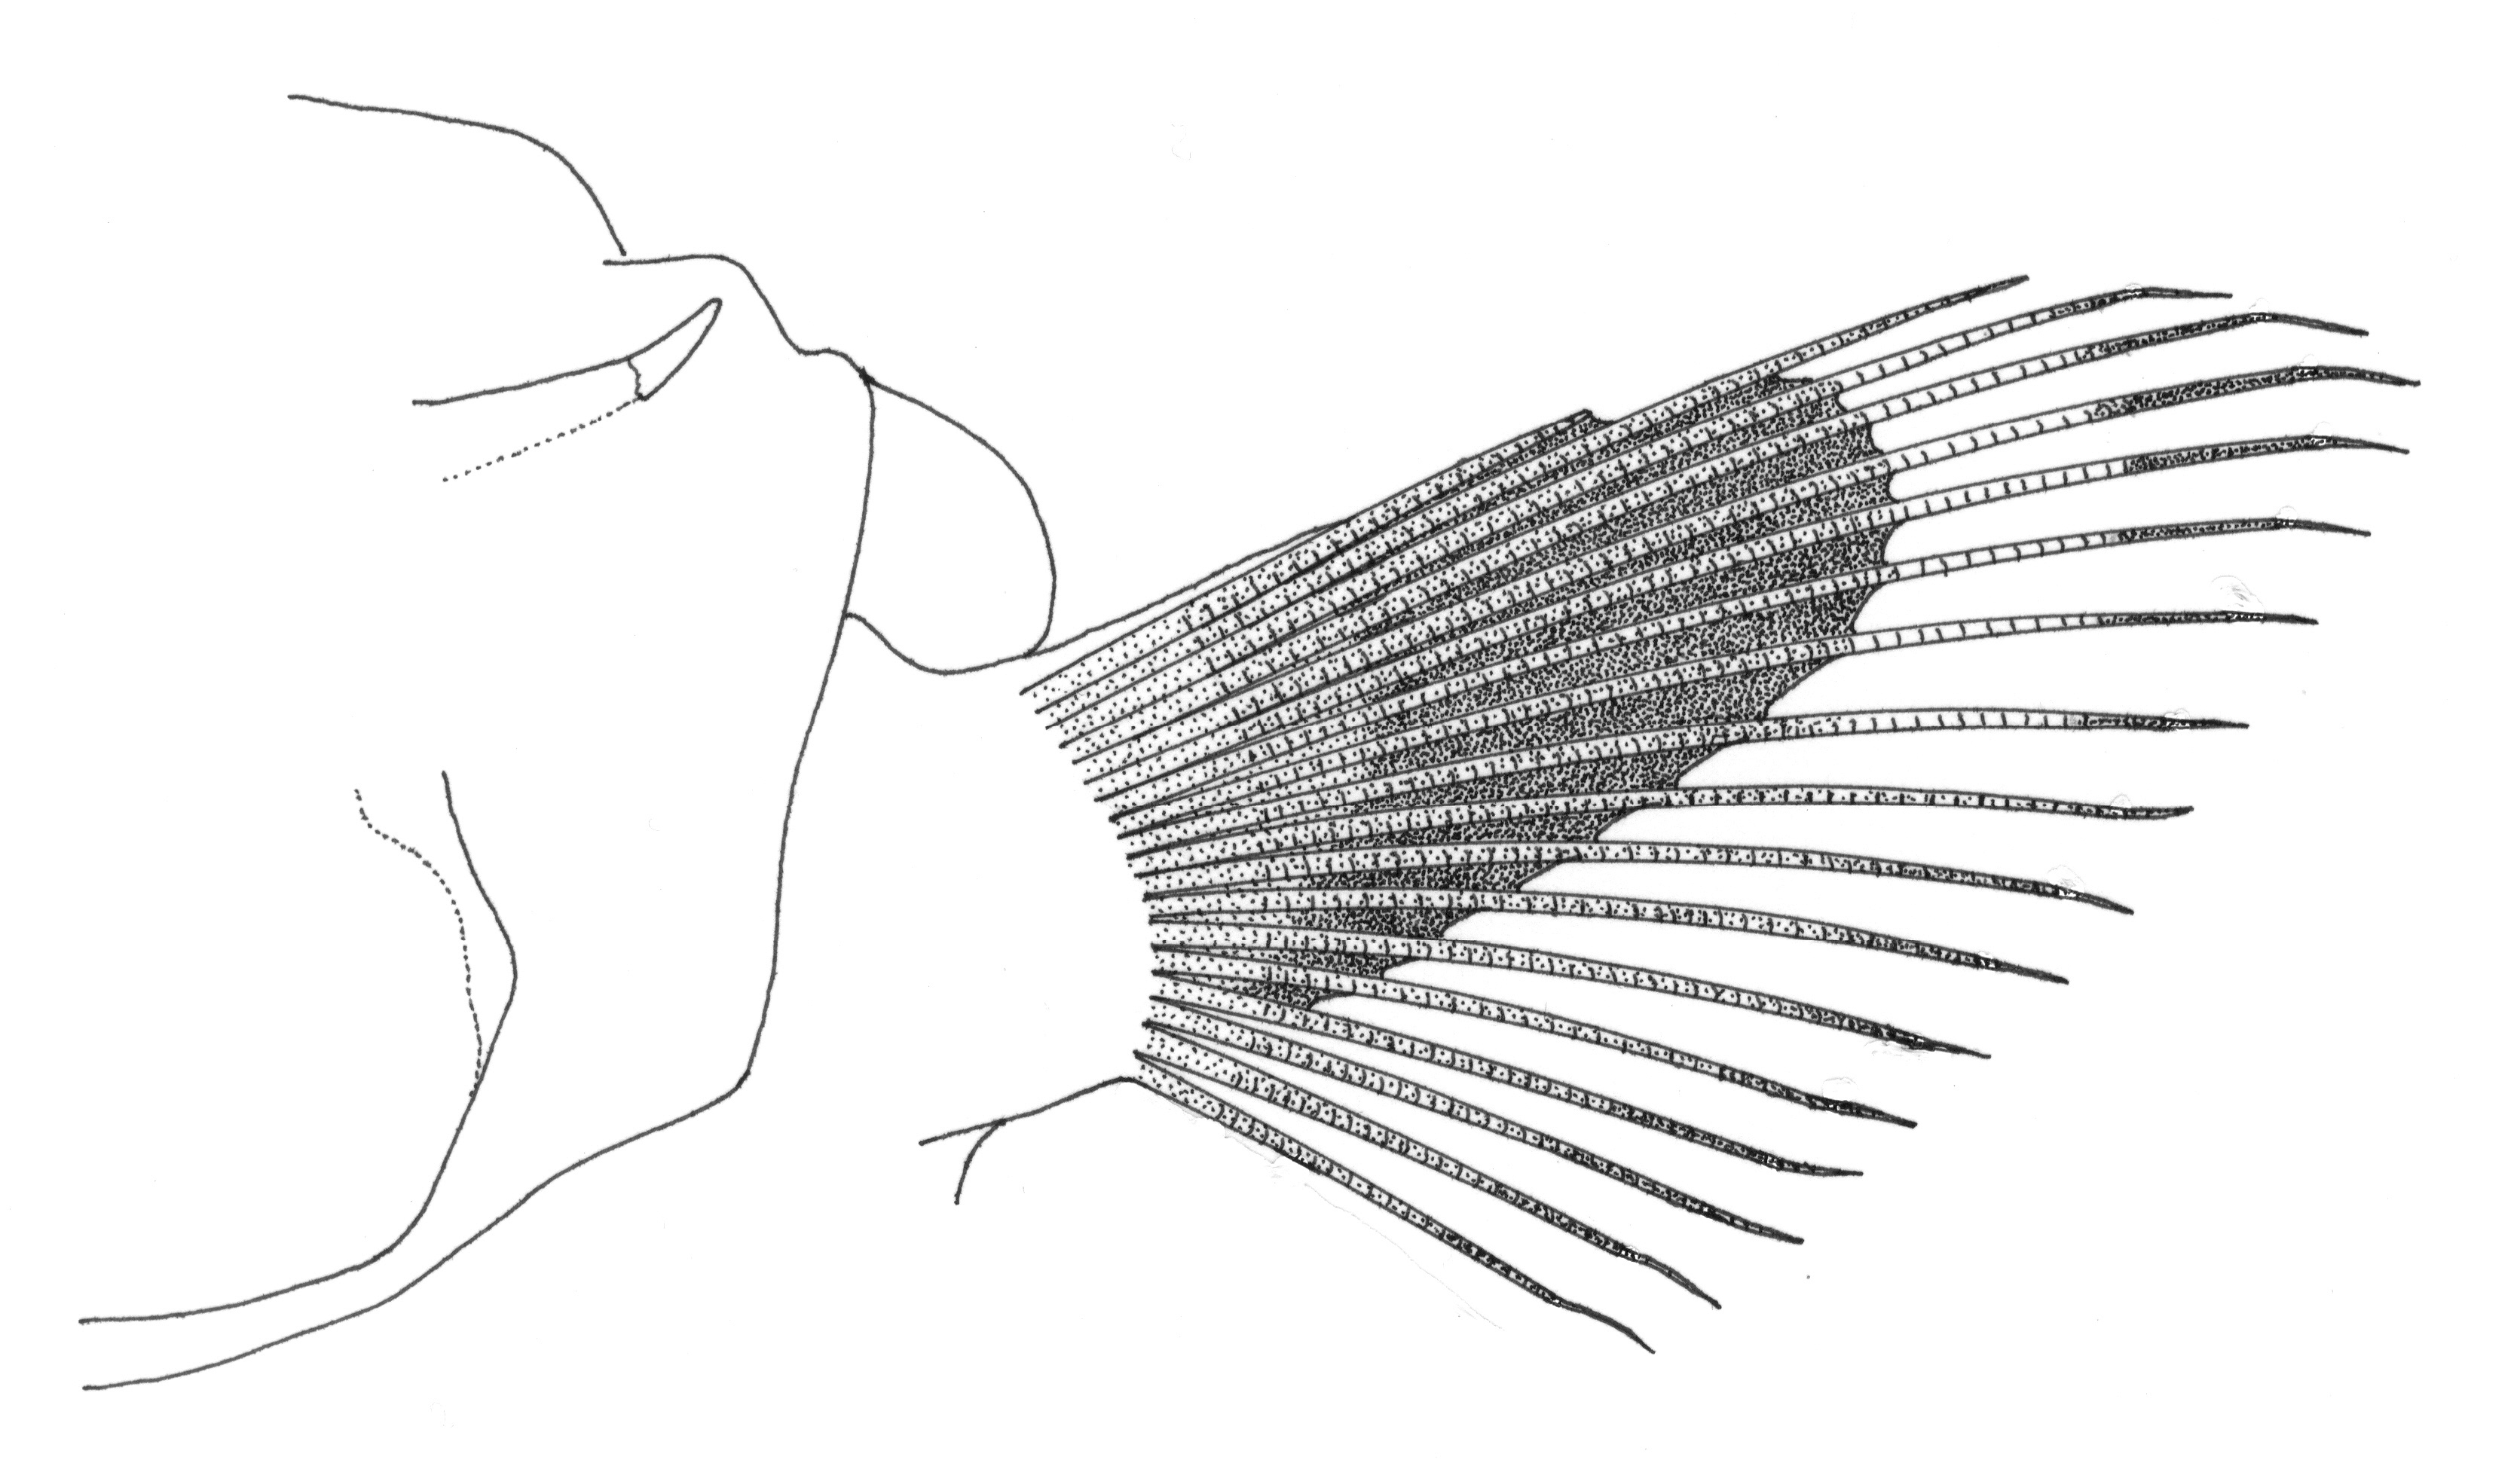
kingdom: Animalia
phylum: Chordata
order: Ophidiiformes
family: Ophidiidae
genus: Holcomycteronus
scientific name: Holcomycteronus brucei
